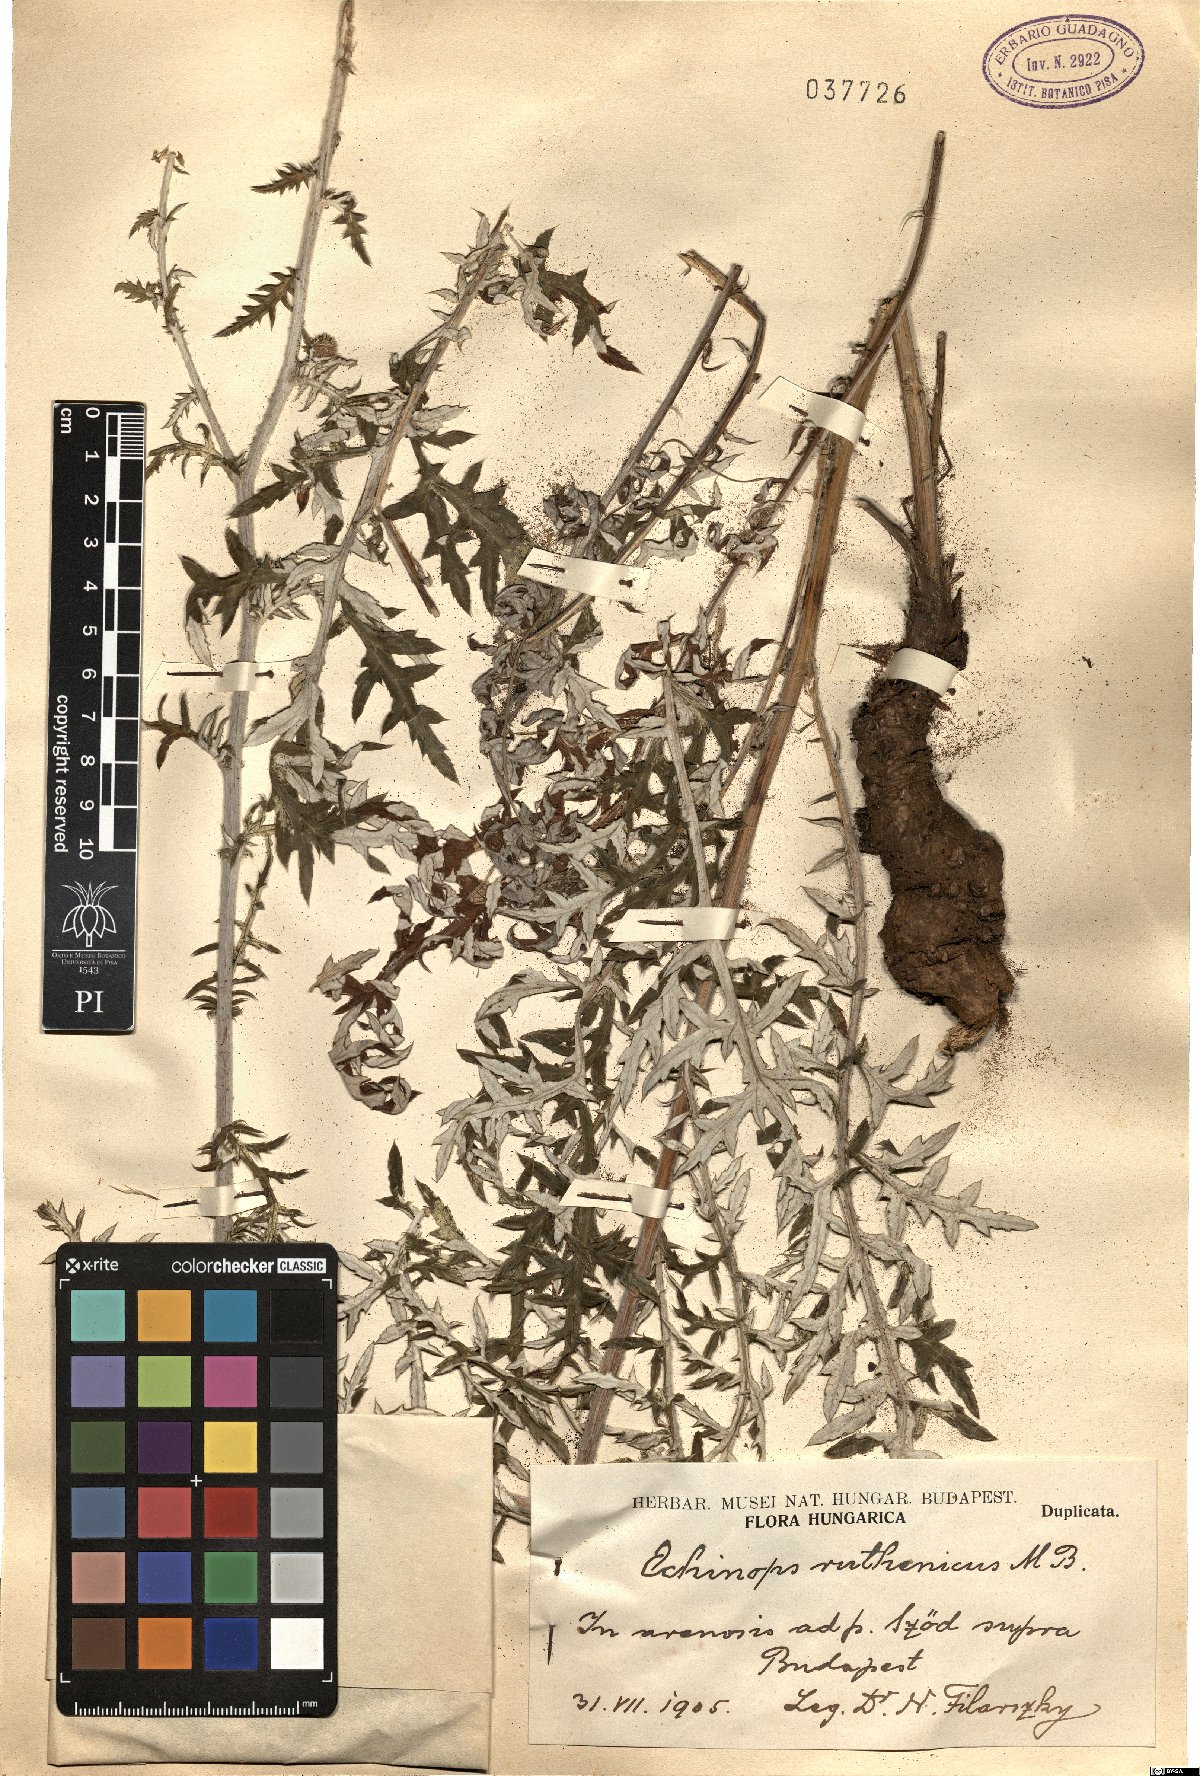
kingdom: Plantae
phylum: Tracheophyta
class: Magnoliopsida
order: Asterales
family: Asteraceae
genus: Echinops
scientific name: Echinops ritro
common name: Globe thistle
